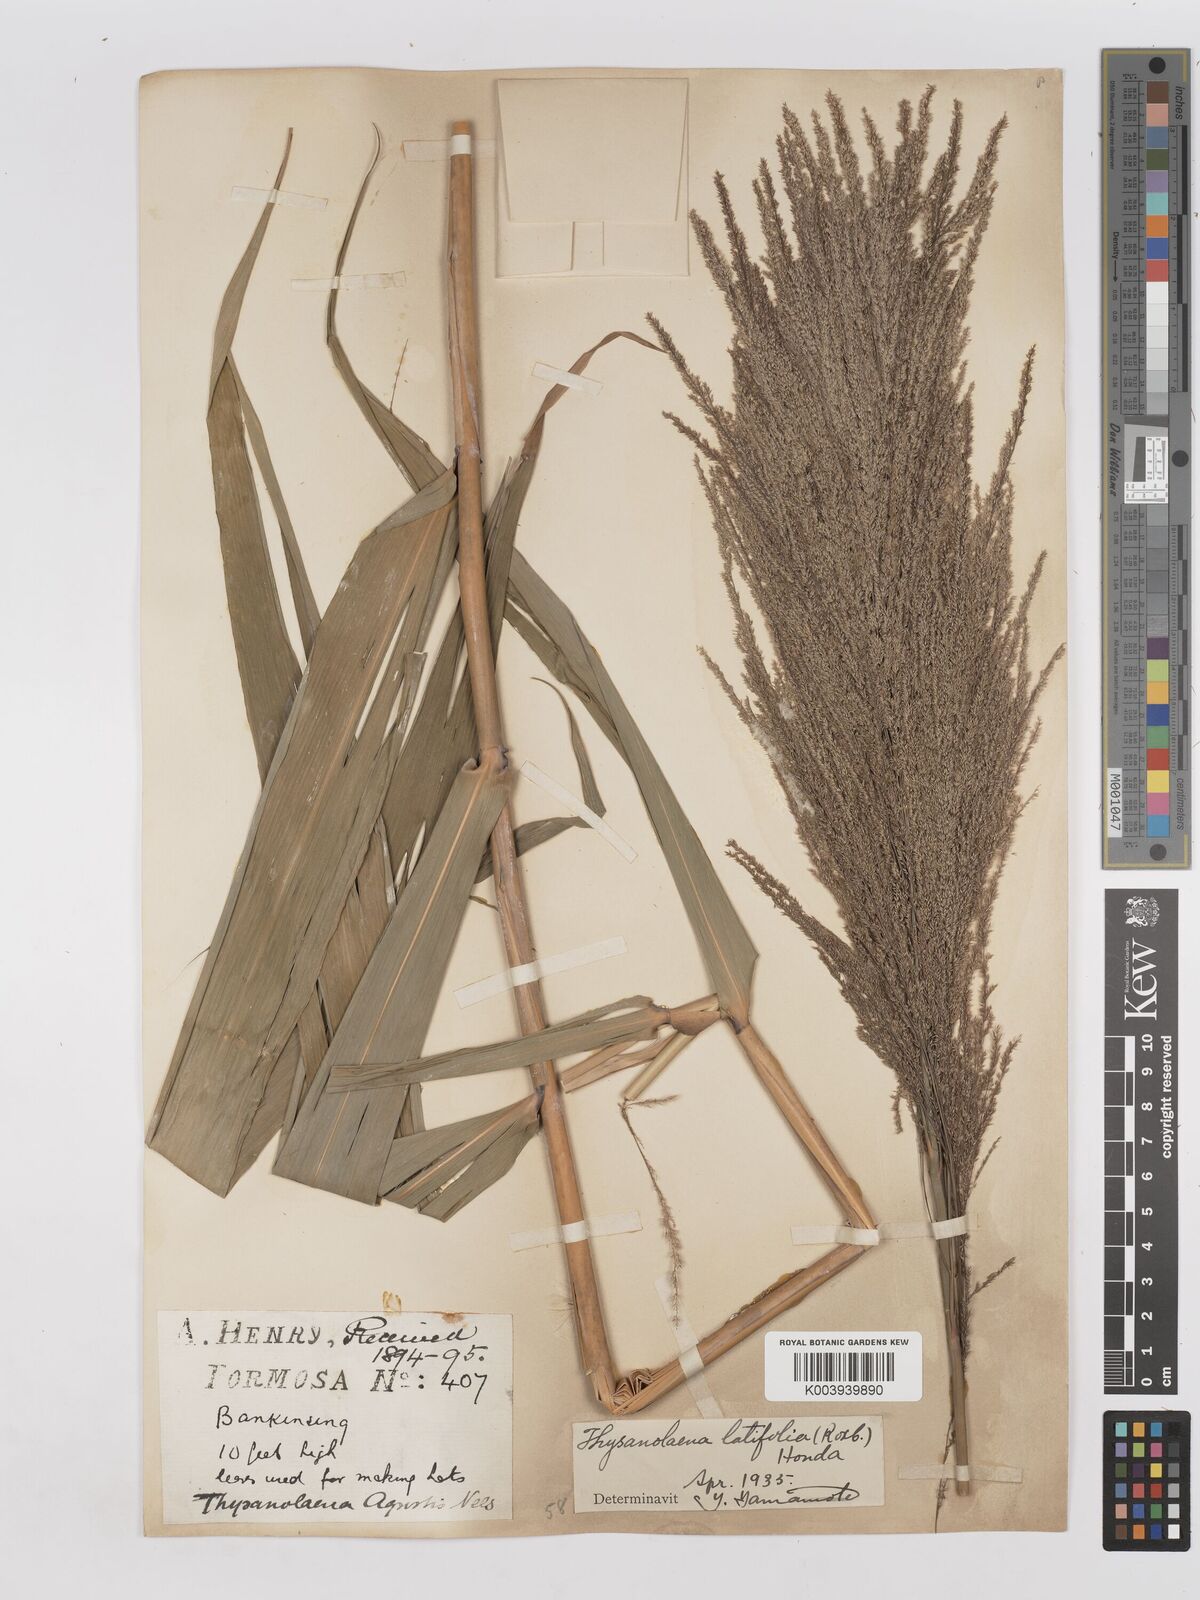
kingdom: Plantae
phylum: Tracheophyta
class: Liliopsida
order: Poales
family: Poaceae
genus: Thysanolaena
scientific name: Thysanolaena latifolia
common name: Tiger grass
